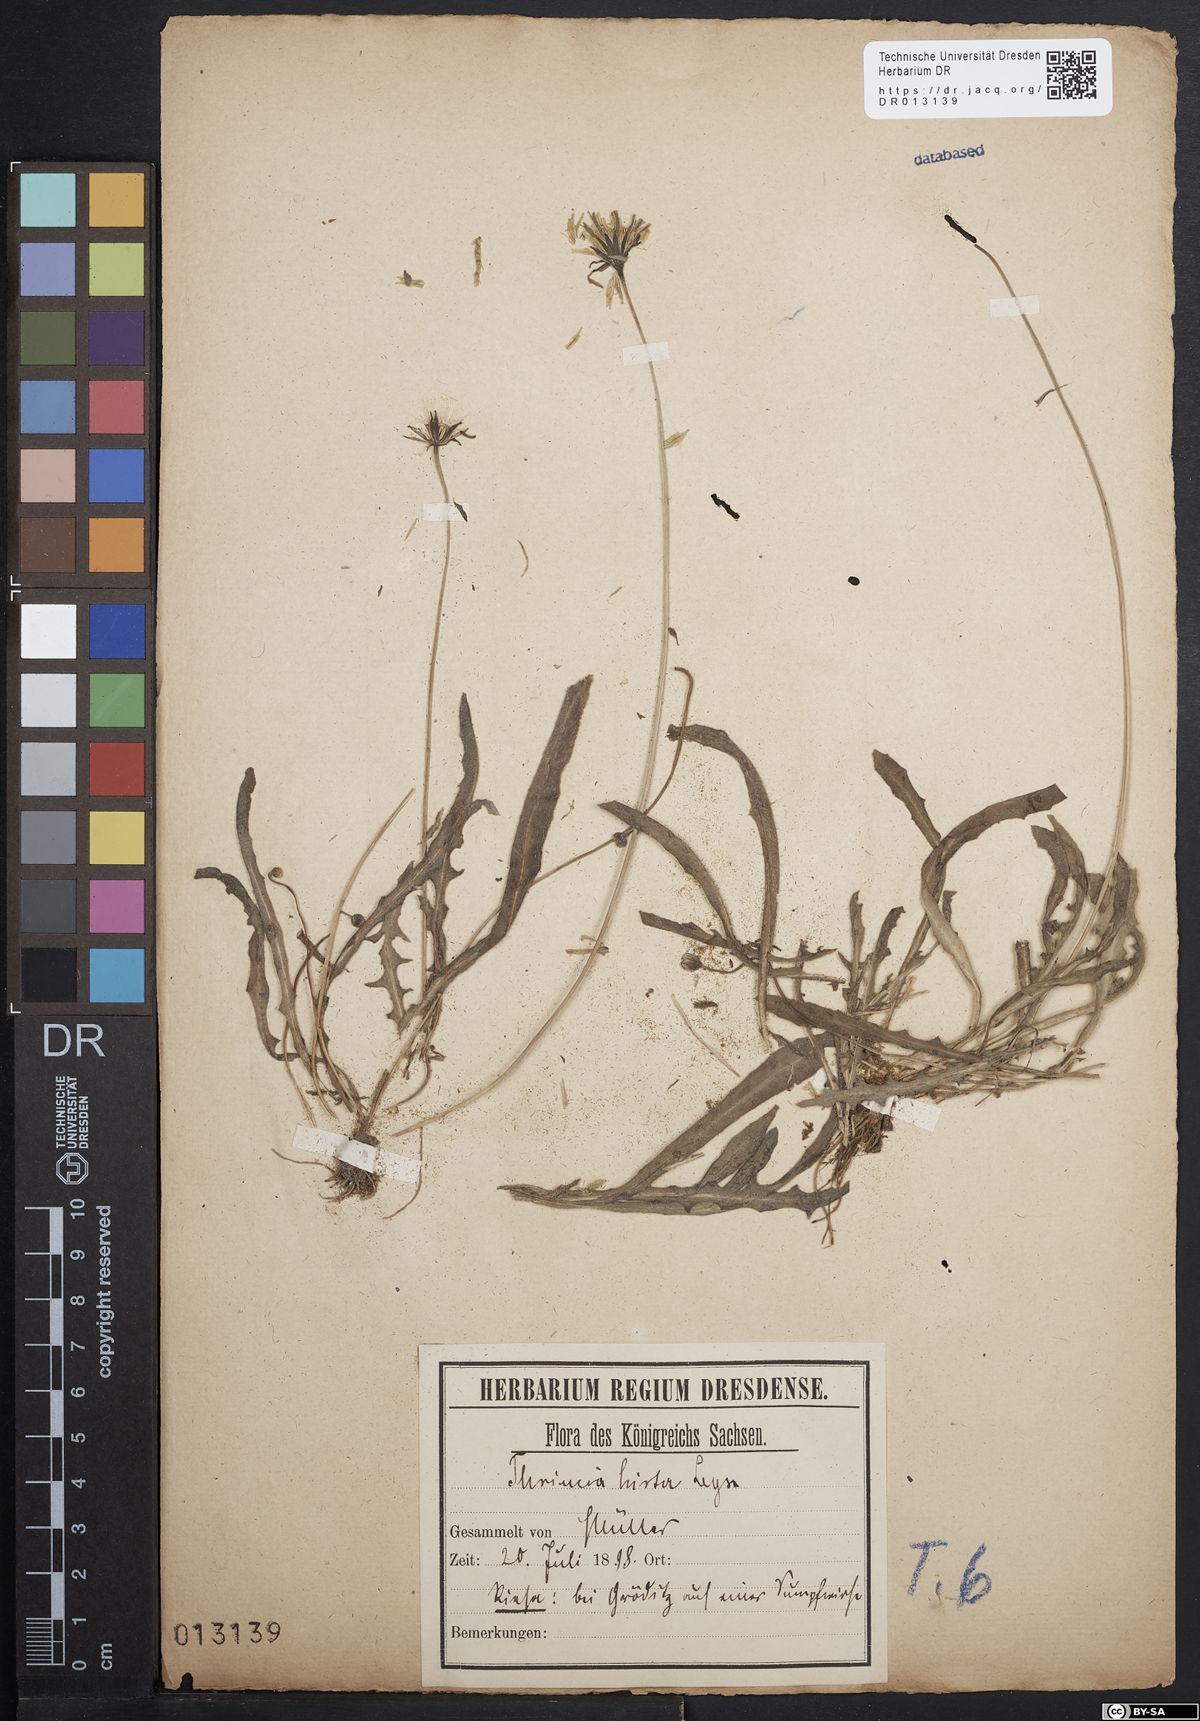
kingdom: Plantae
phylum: Tracheophyta
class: Magnoliopsida
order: Asterales
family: Asteraceae
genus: Thrincia
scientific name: Thrincia saxatilis
